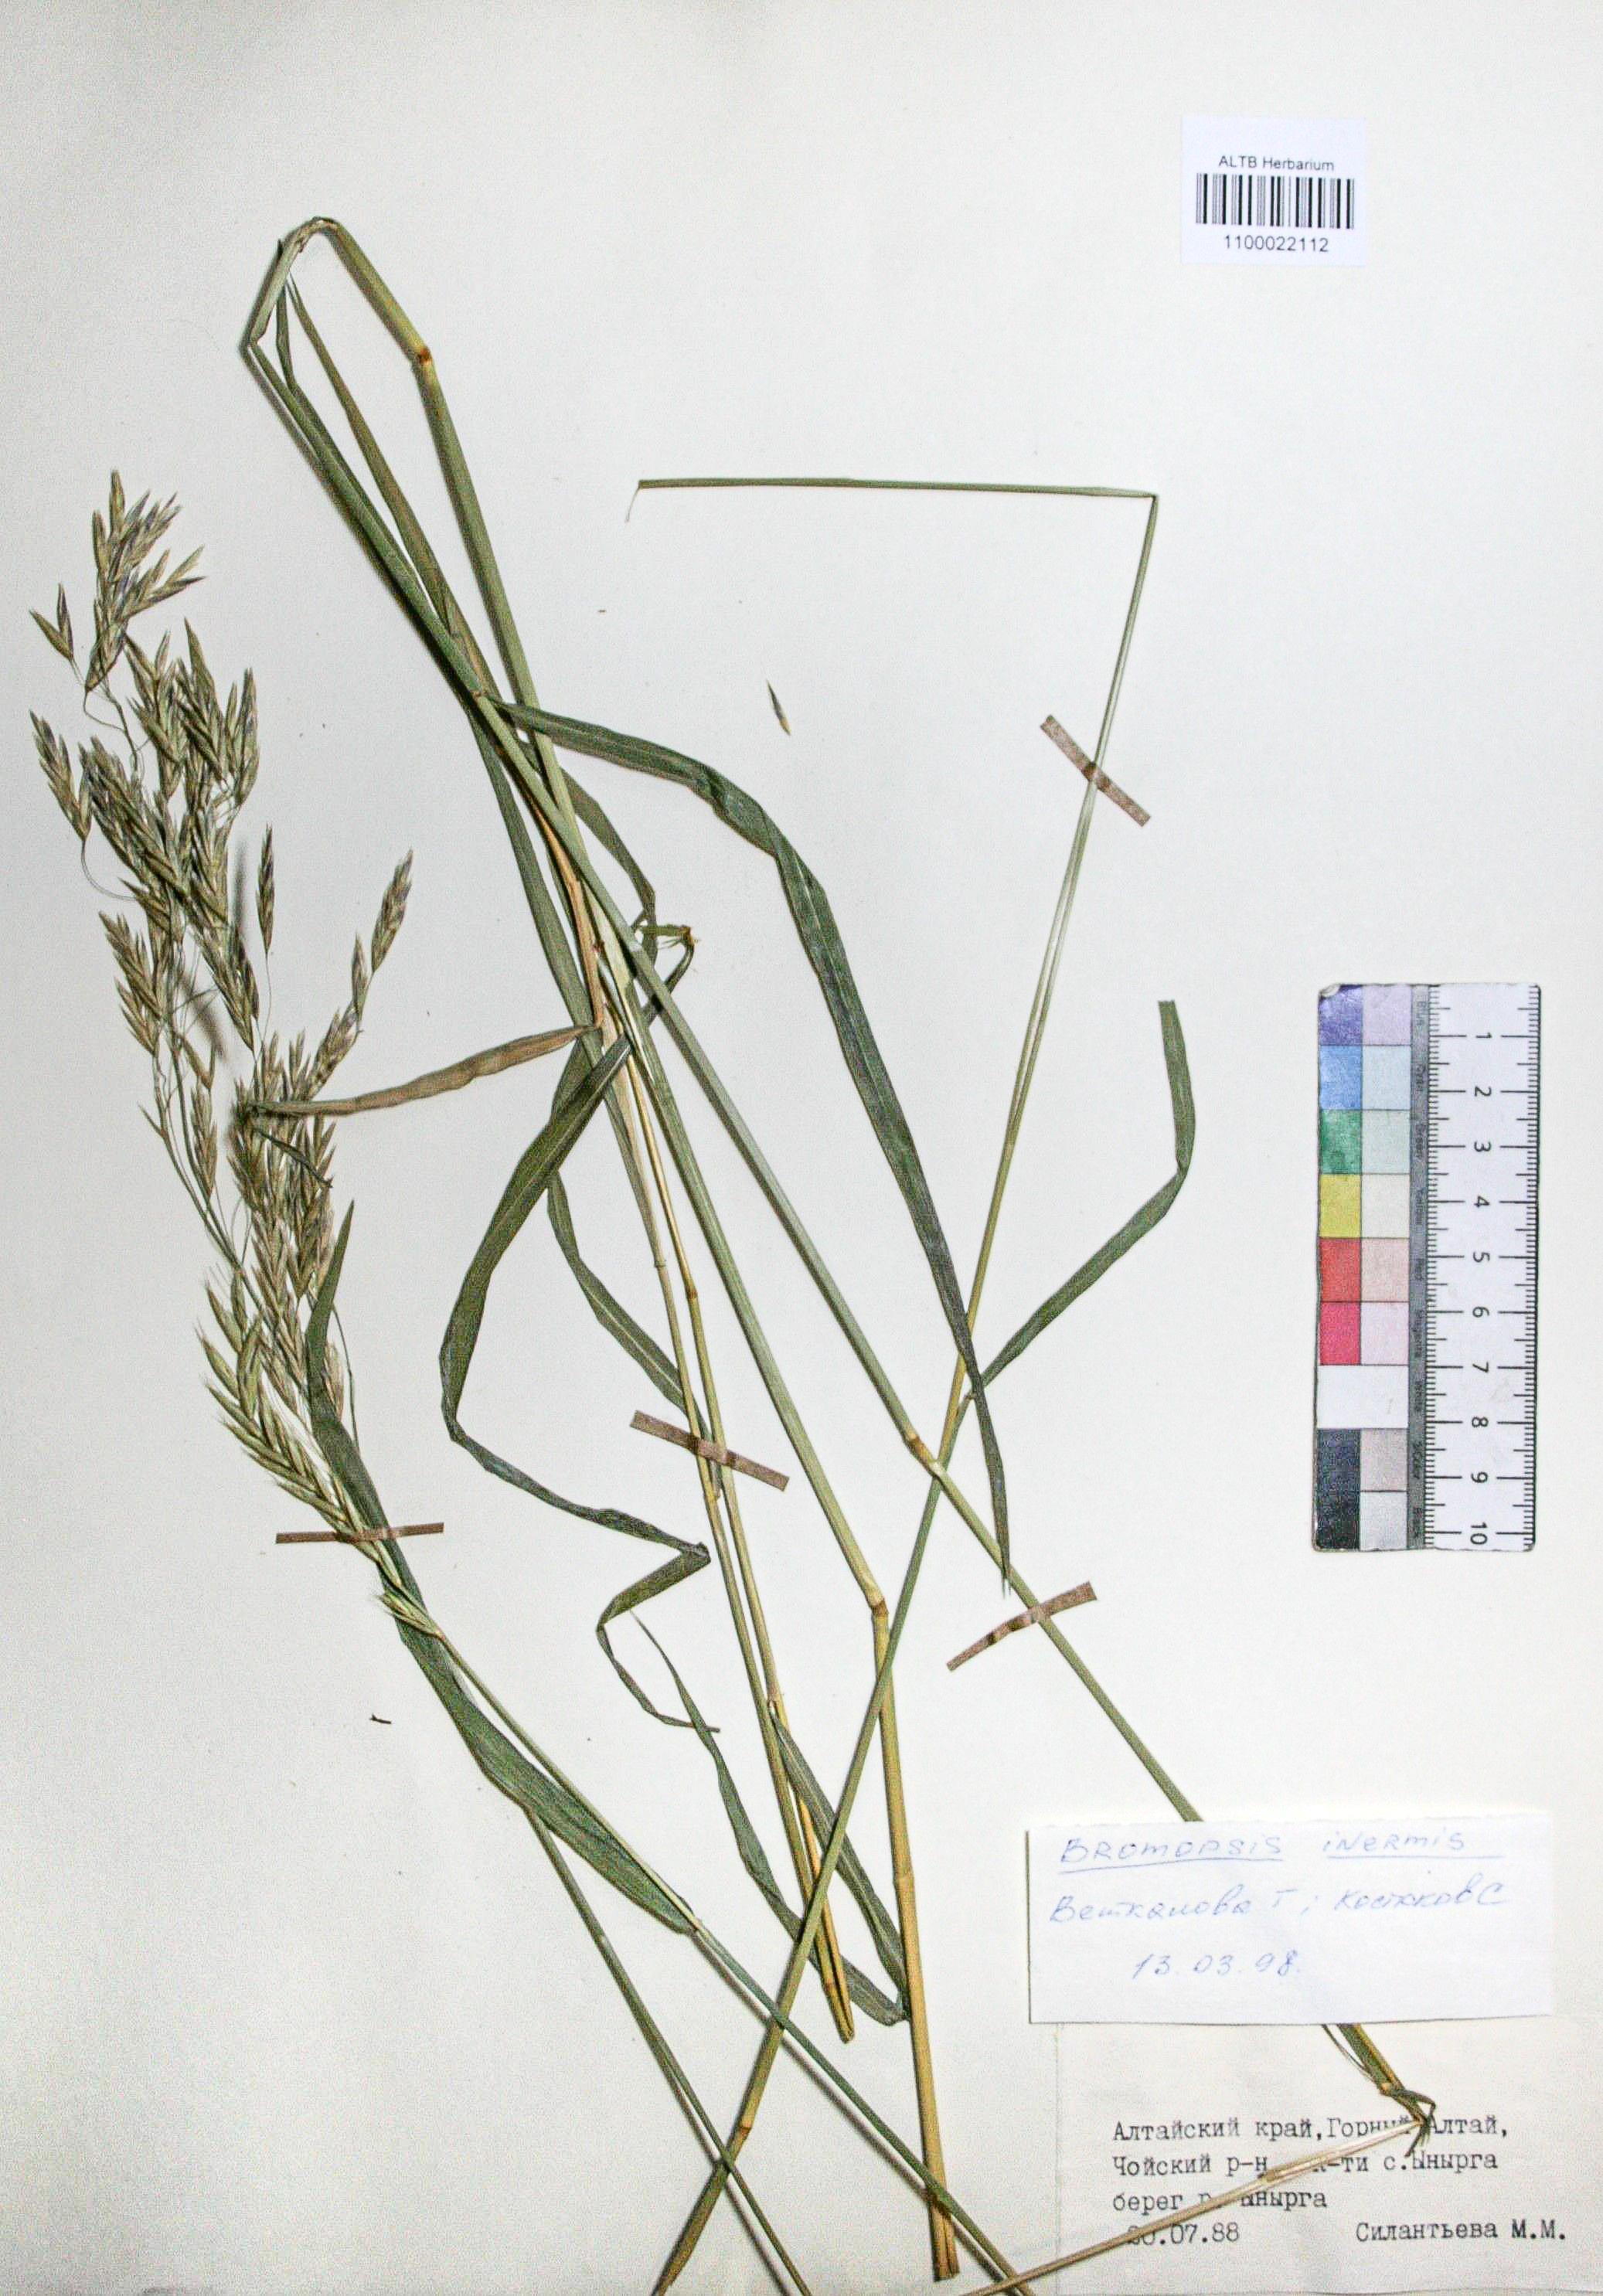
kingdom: Plantae
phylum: Tracheophyta
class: Liliopsida
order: Poales
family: Poaceae
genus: Bromus
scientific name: Bromus inermis
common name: Smooth brome
